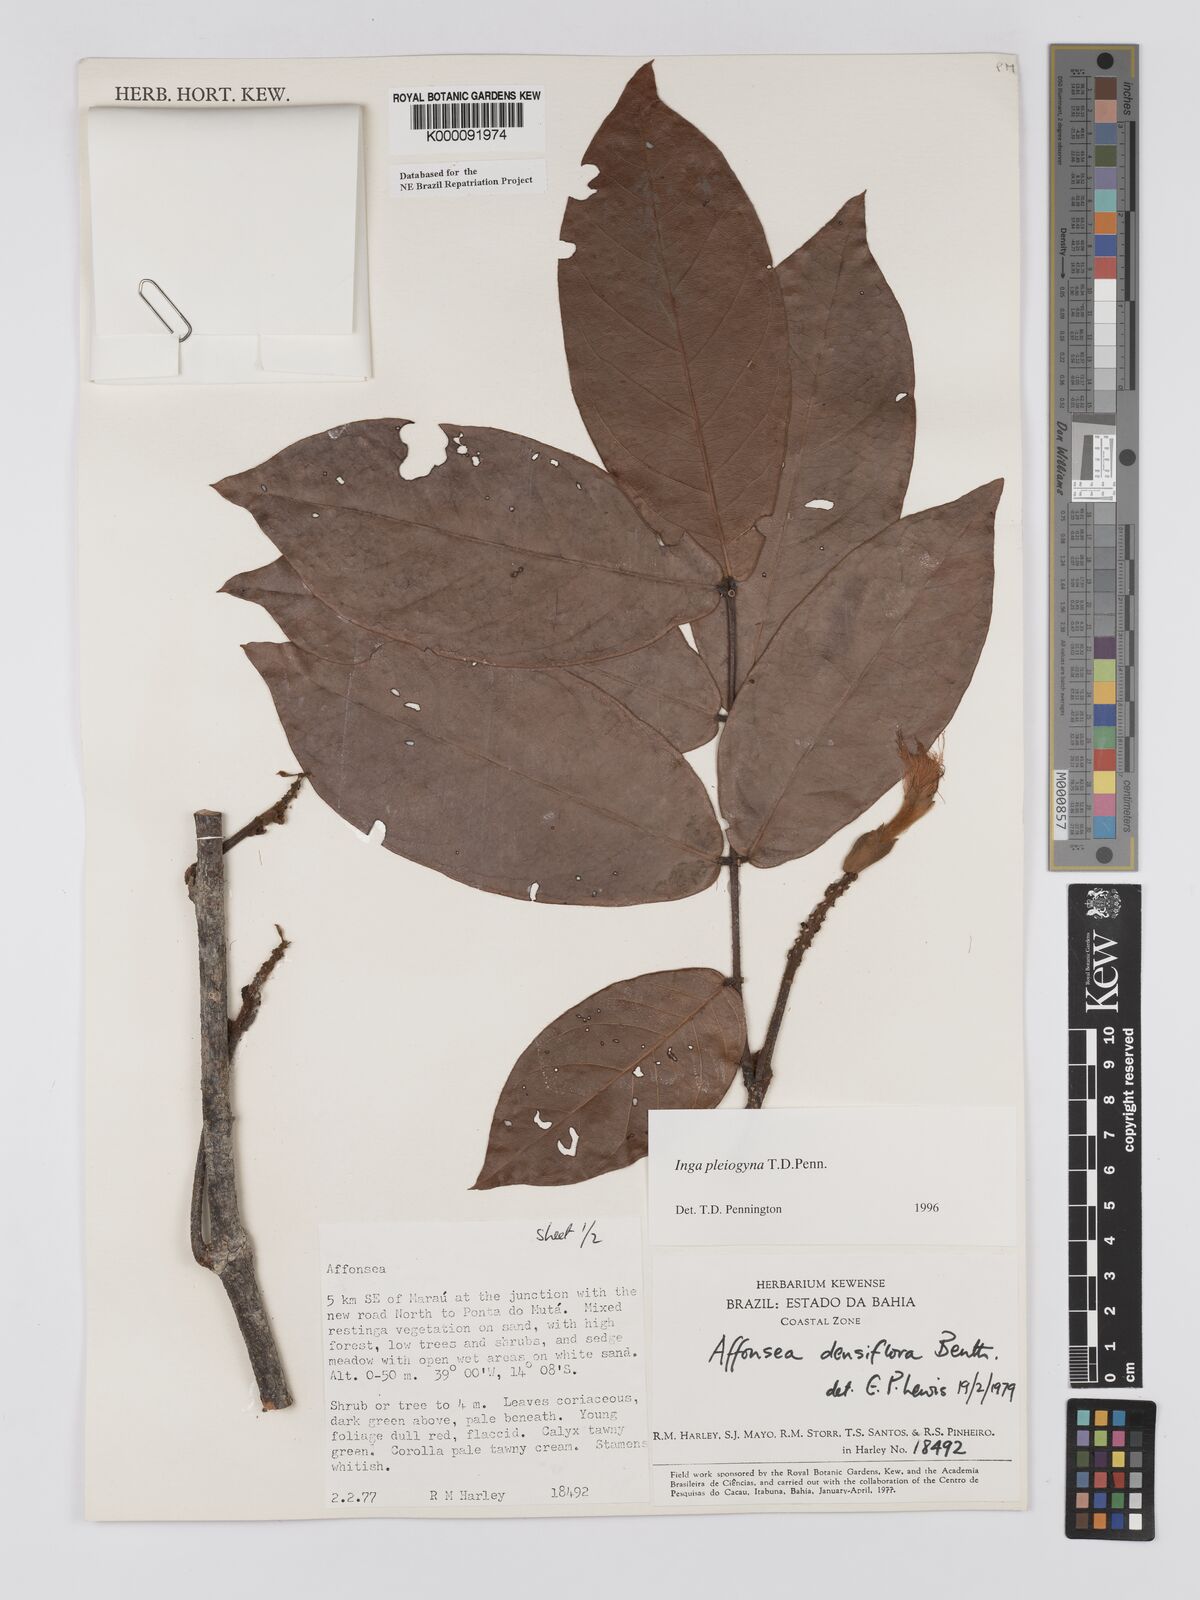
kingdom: Plantae
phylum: Tracheophyta
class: Magnoliopsida
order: Fabales
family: Fabaceae
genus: Inga
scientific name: Inga pleiogyna
